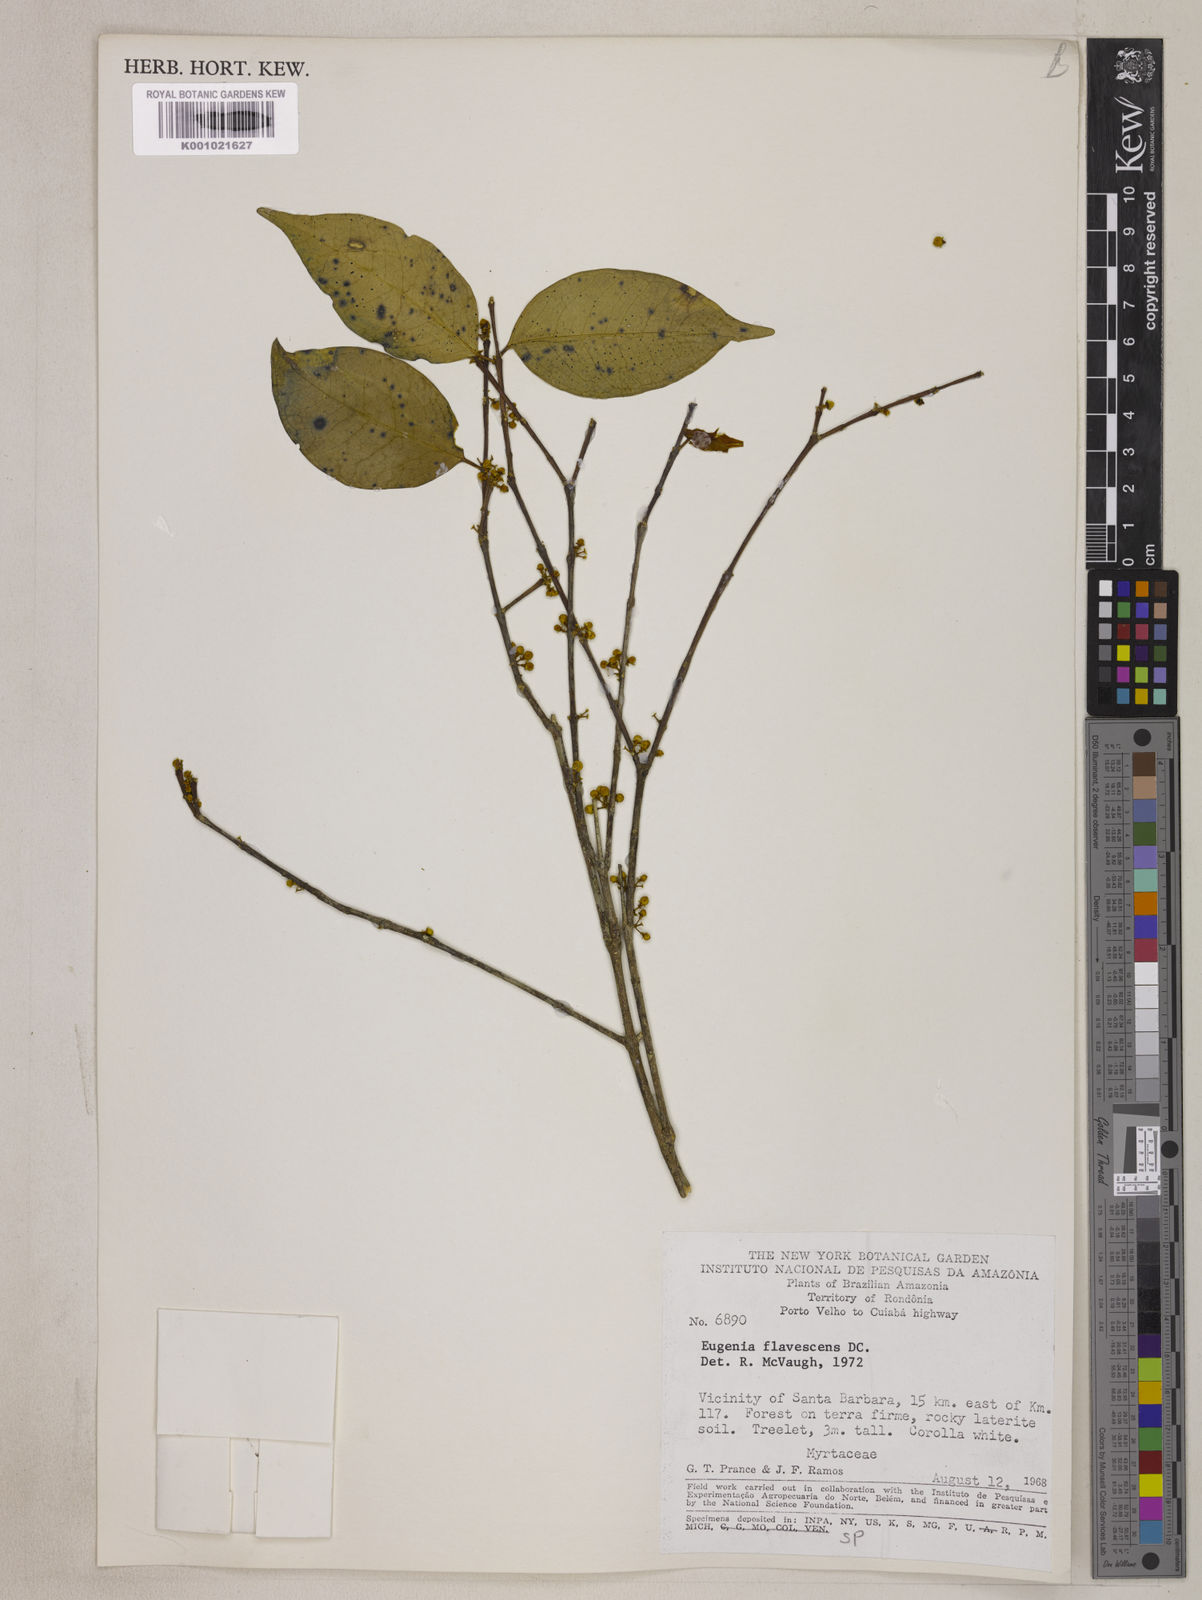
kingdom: Plantae
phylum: Tracheophyta
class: Magnoliopsida
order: Myrtales
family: Myrtaceae
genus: Eugenia
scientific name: Eugenia flavescens
